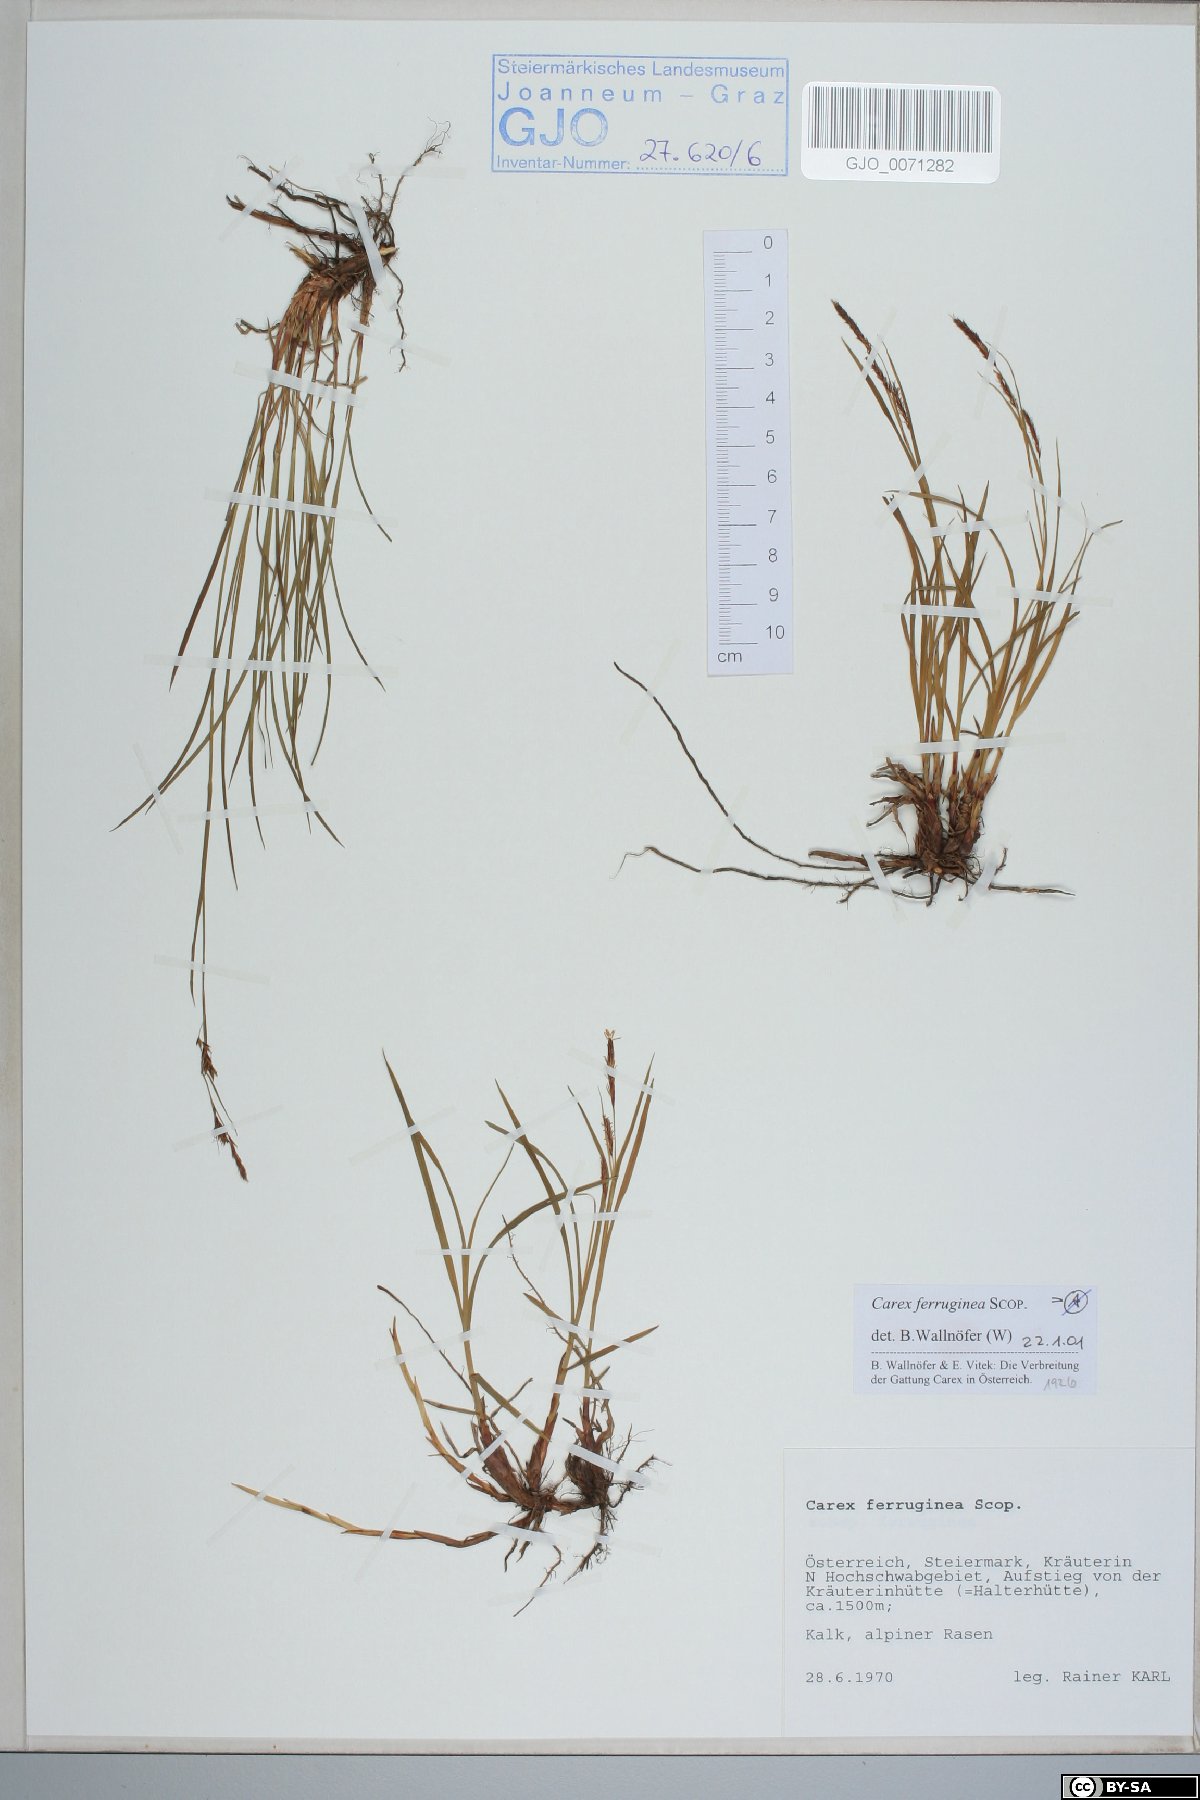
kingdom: Plantae
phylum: Tracheophyta
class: Liliopsida
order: Poales
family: Cyperaceae
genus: Carex
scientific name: Carex ferruginea
